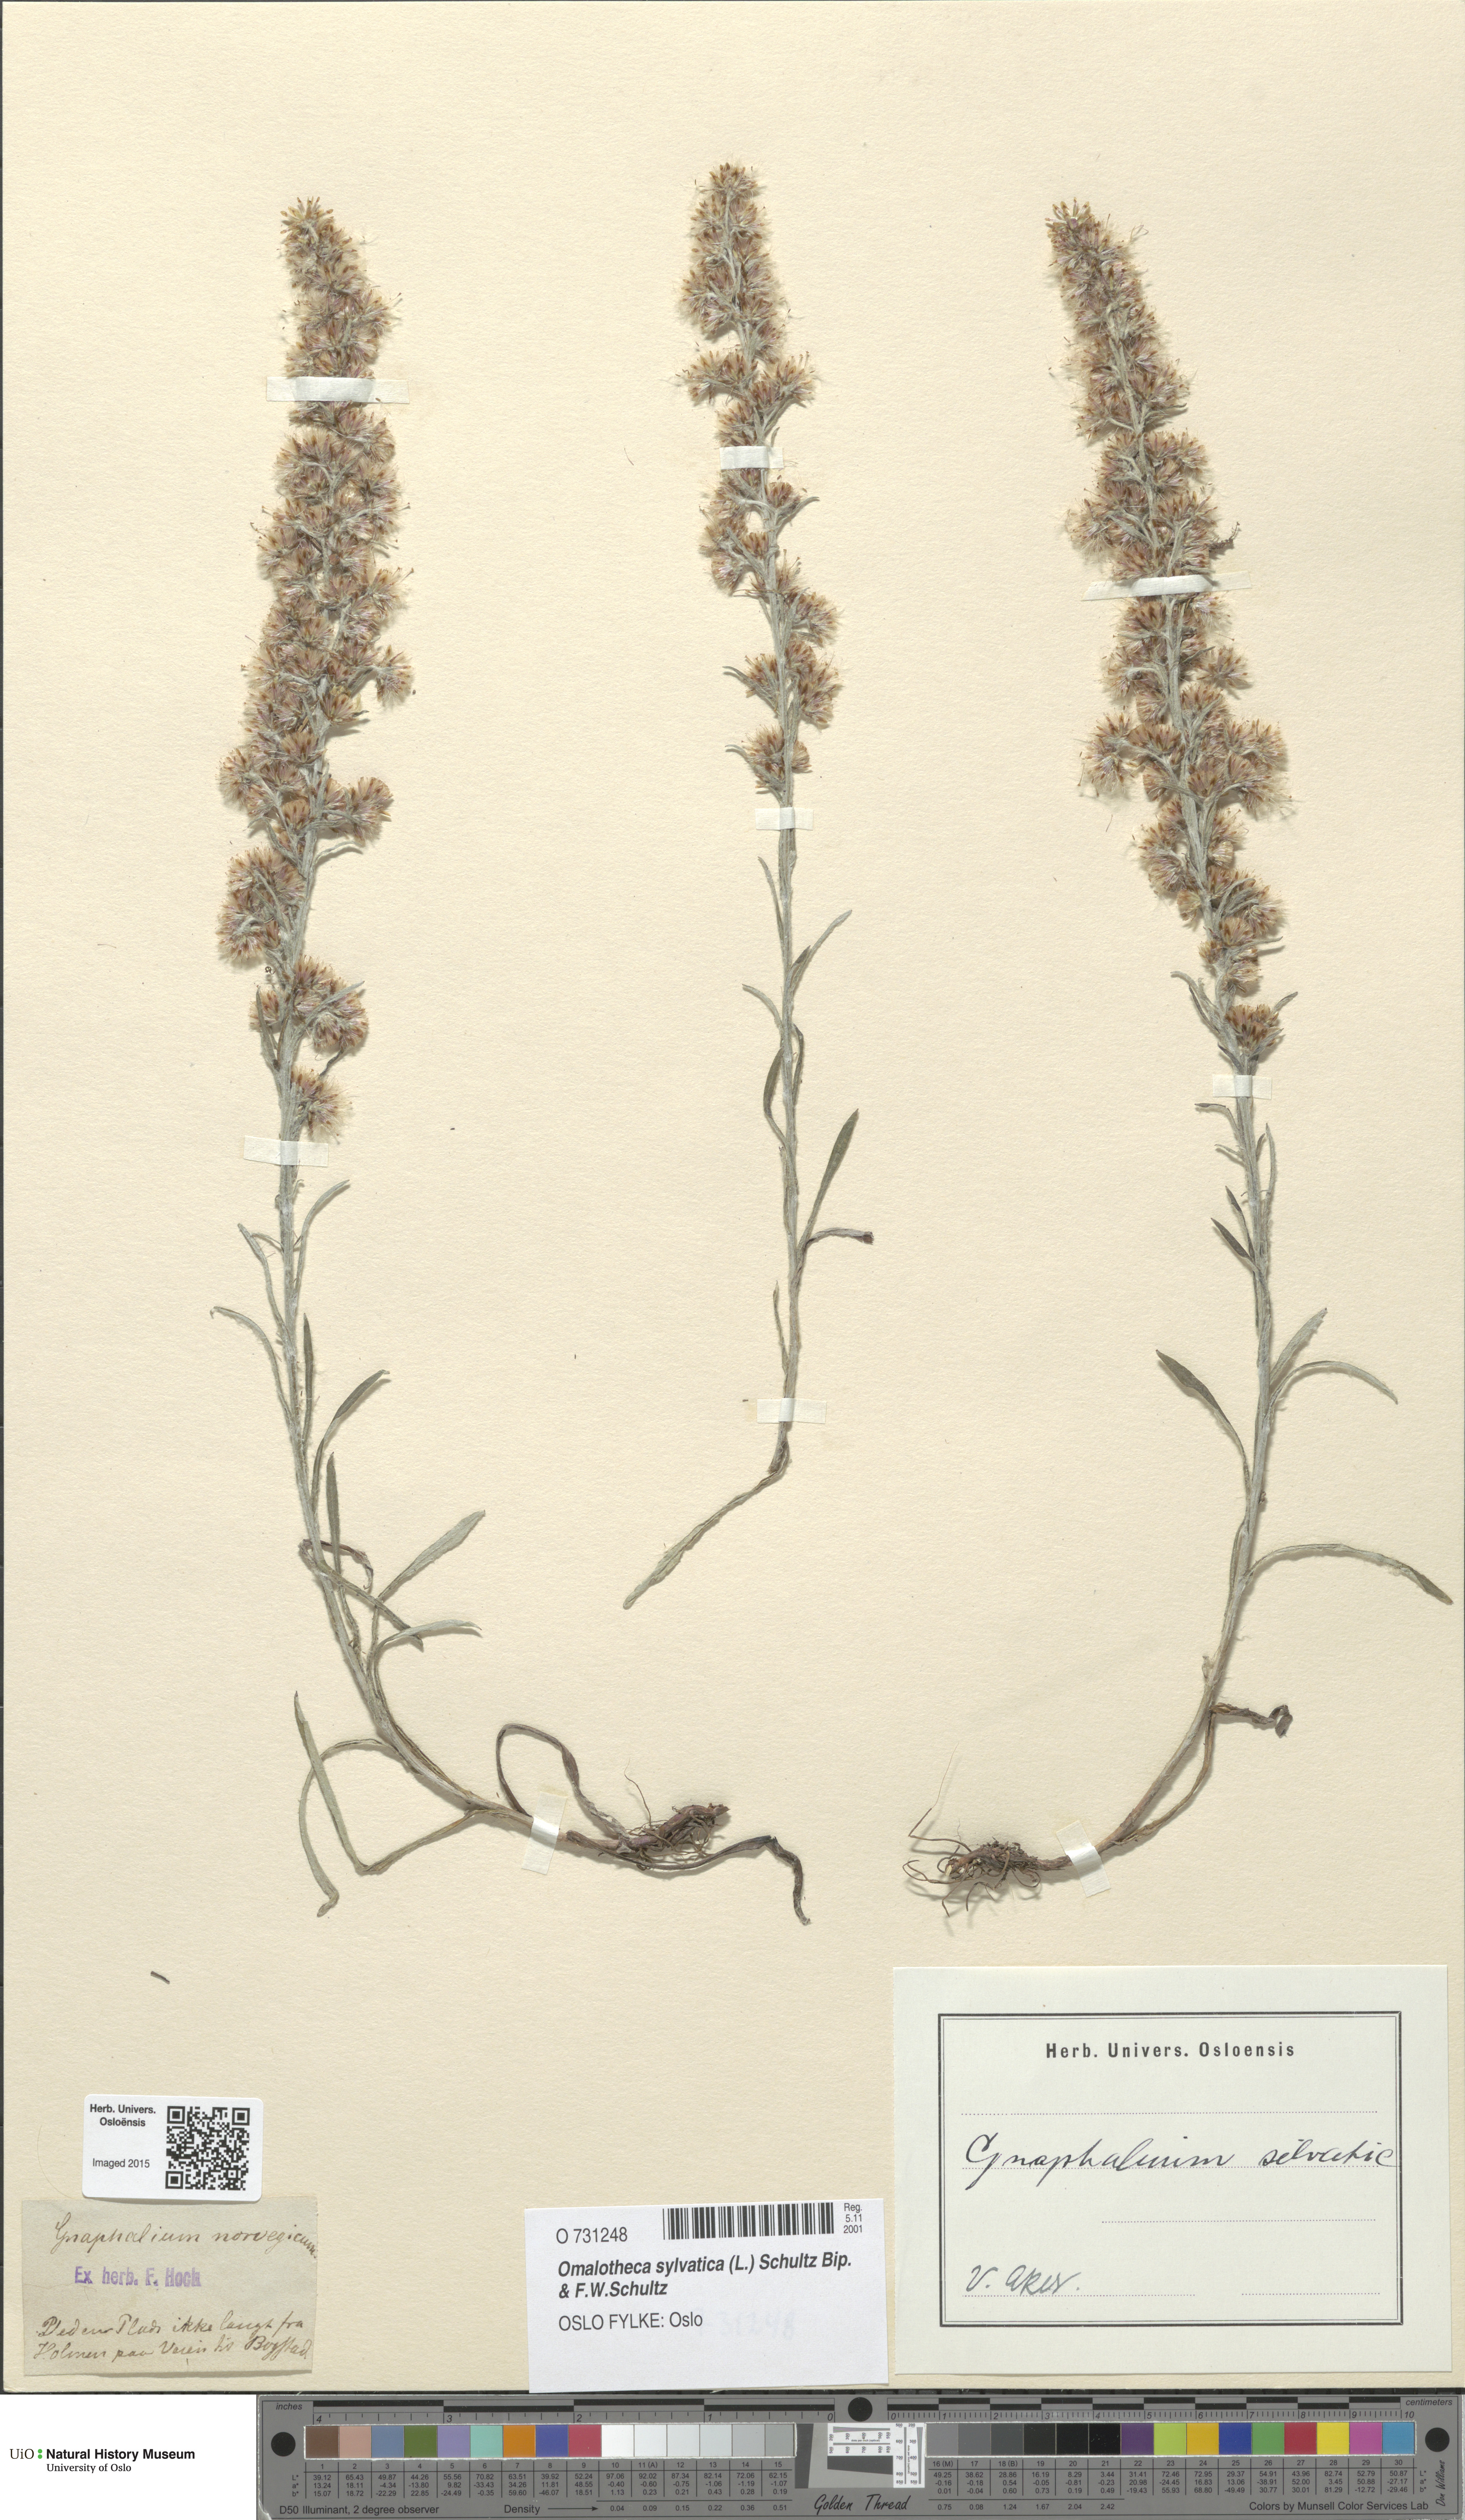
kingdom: Plantae
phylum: Tracheophyta
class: Magnoliopsida
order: Asterales
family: Asteraceae
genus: Omalotheca
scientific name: Omalotheca sylvatica
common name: Heath cudweed
